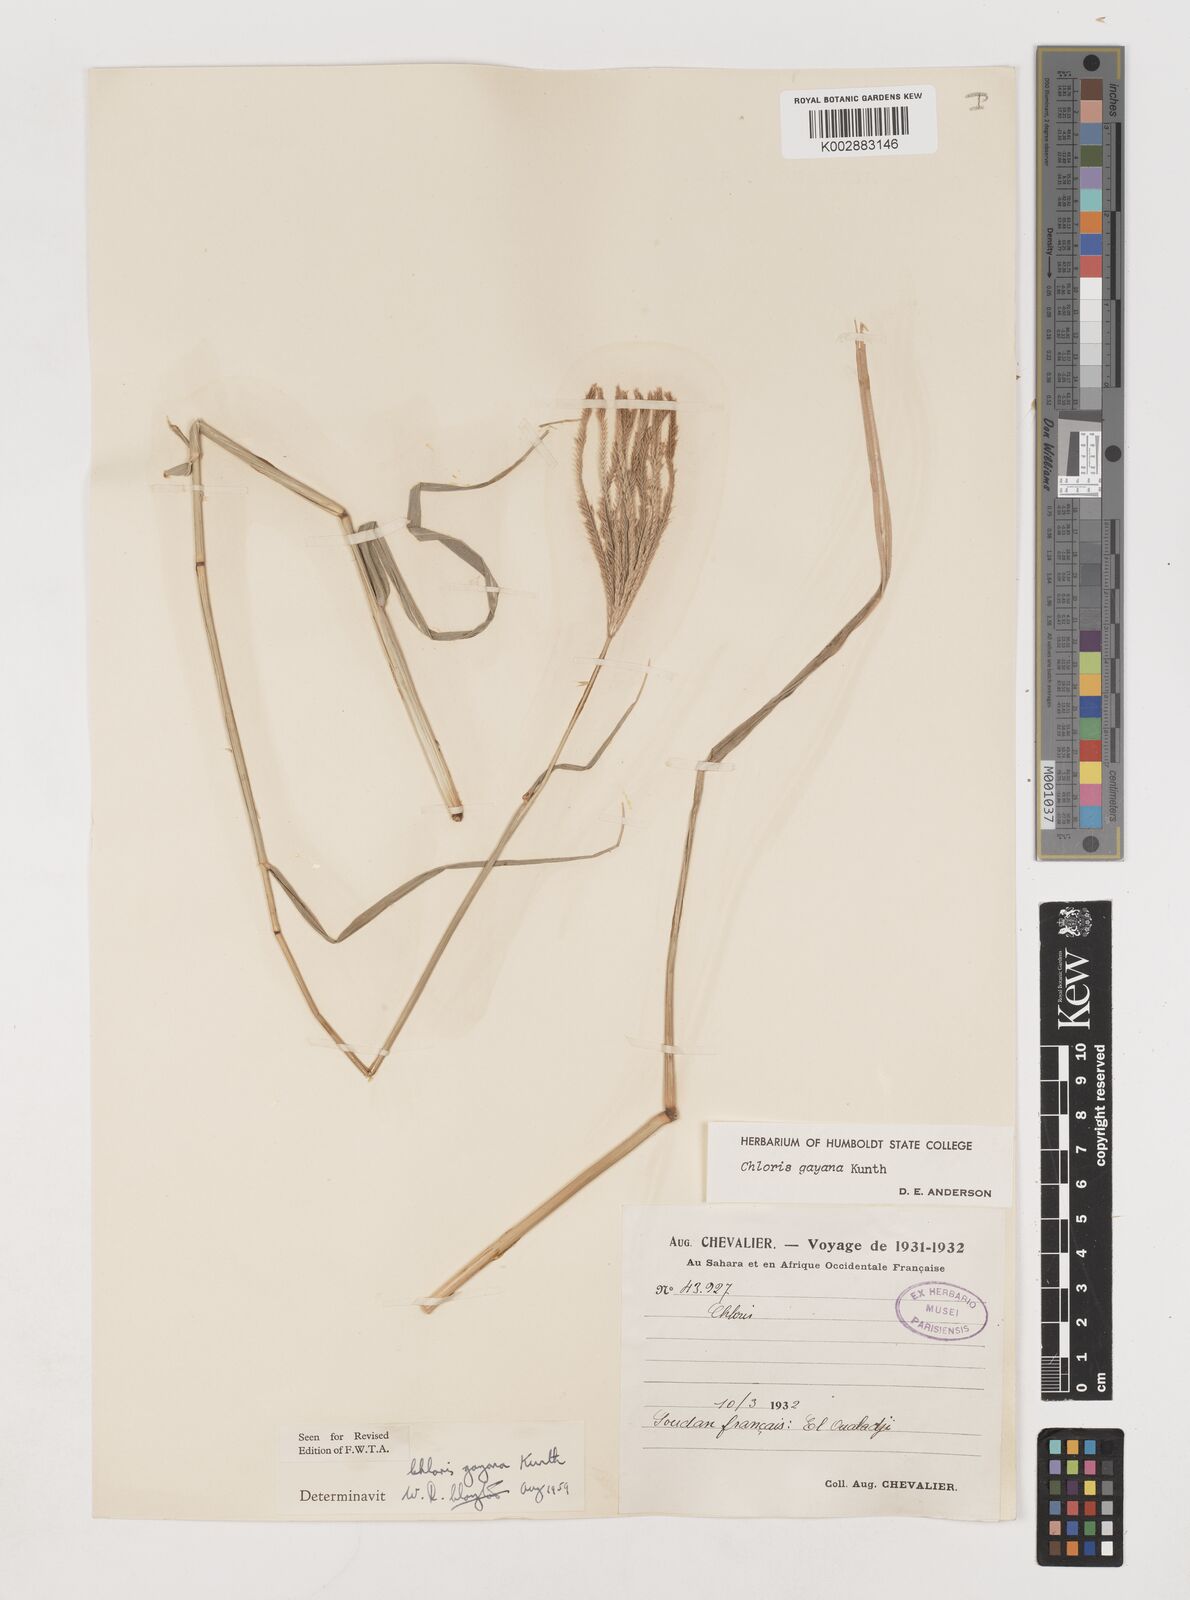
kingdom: Plantae
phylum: Tracheophyta
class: Liliopsida
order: Poales
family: Poaceae
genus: Chloris
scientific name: Chloris gayana
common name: Rhodes grass
